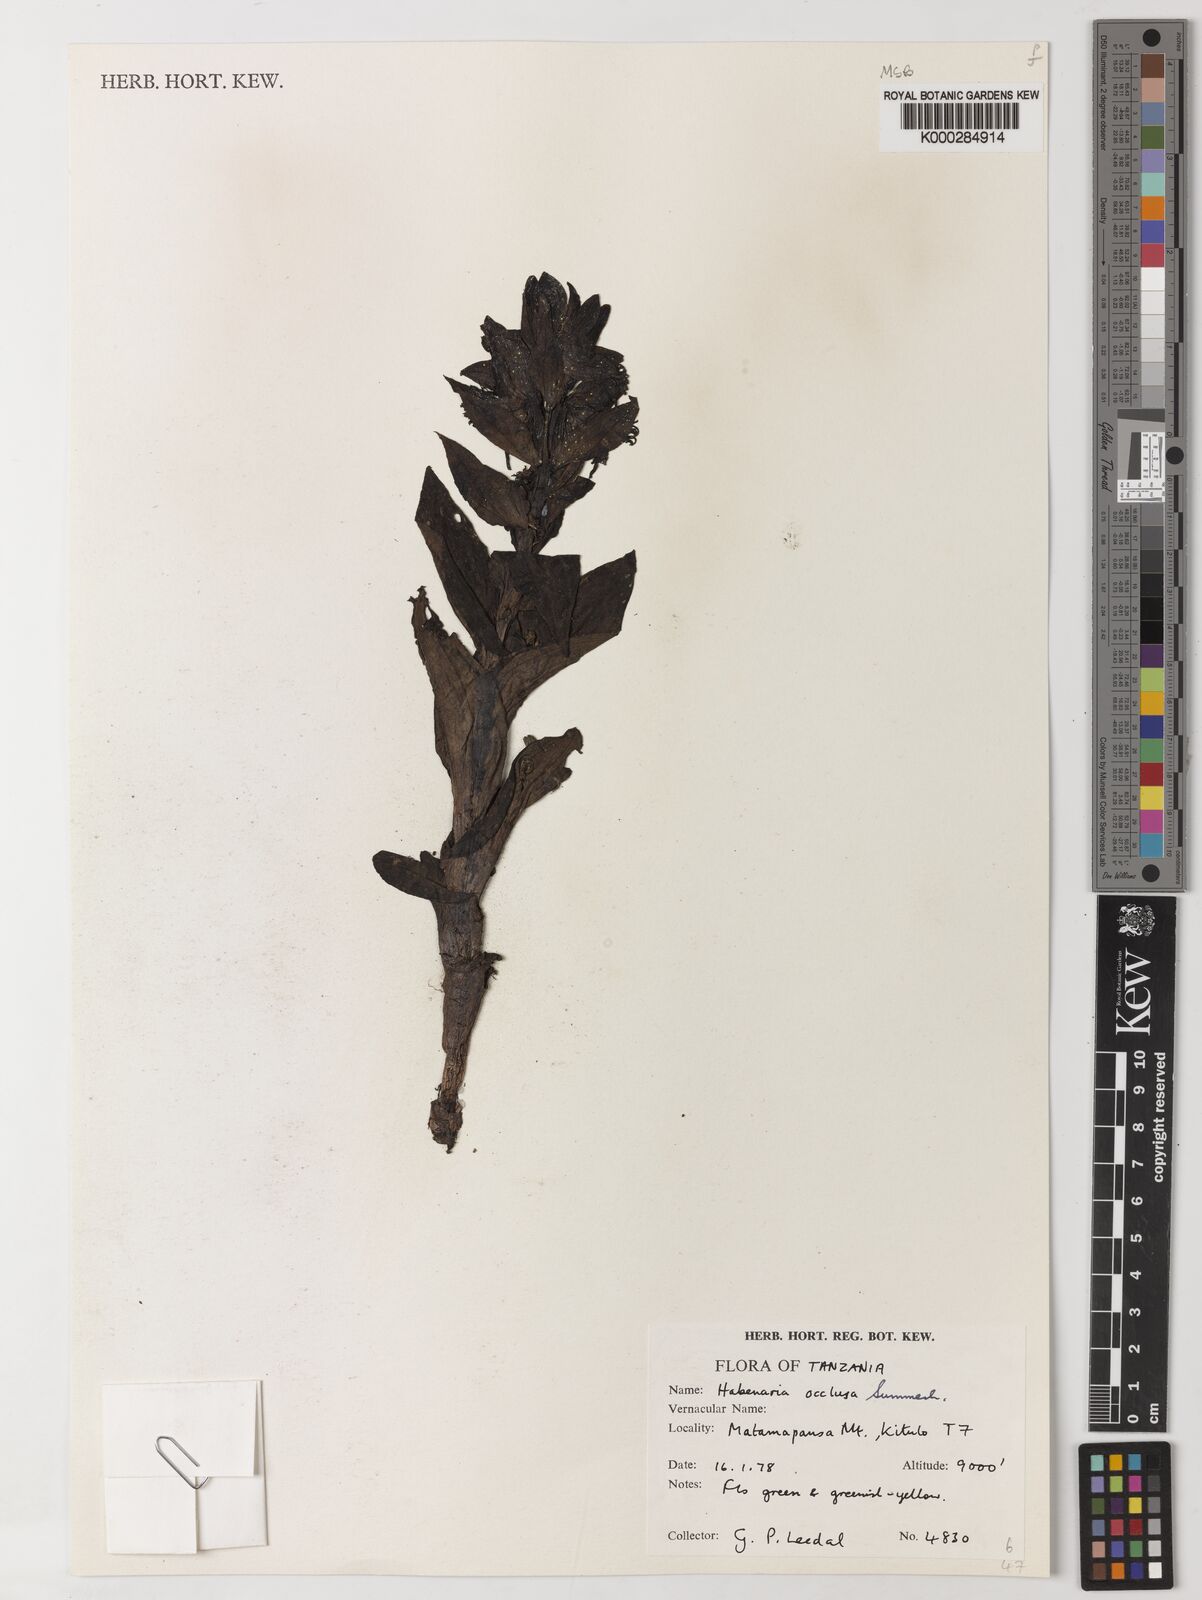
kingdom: Plantae
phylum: Tracheophyta
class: Liliopsida
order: Asparagales
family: Orchidaceae
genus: Habenaria
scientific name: Habenaria occlusa
